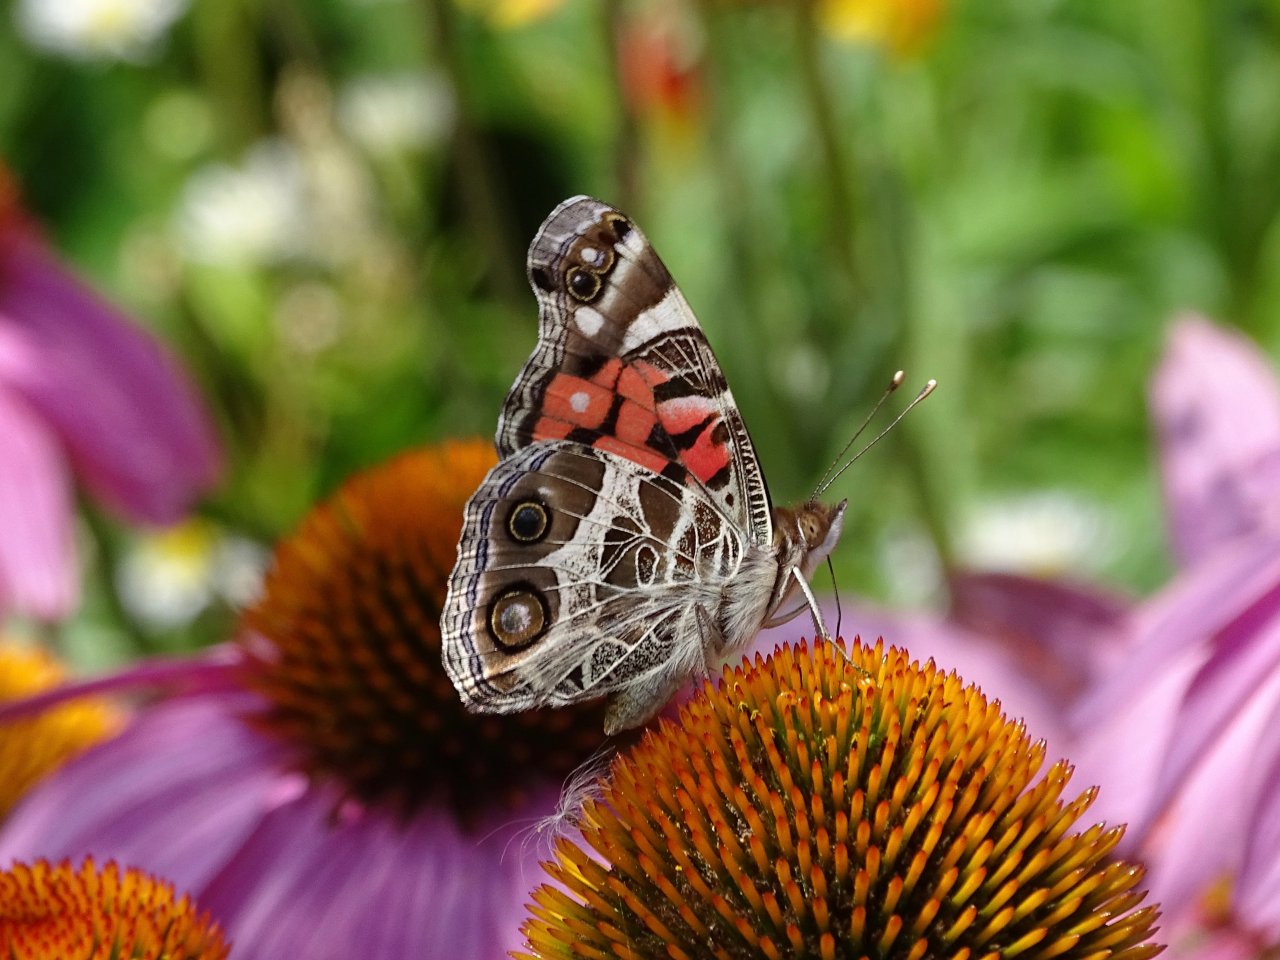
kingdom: Animalia
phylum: Arthropoda
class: Insecta
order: Lepidoptera
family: Nymphalidae
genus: Vanessa
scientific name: Vanessa virginiensis
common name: American Lady
